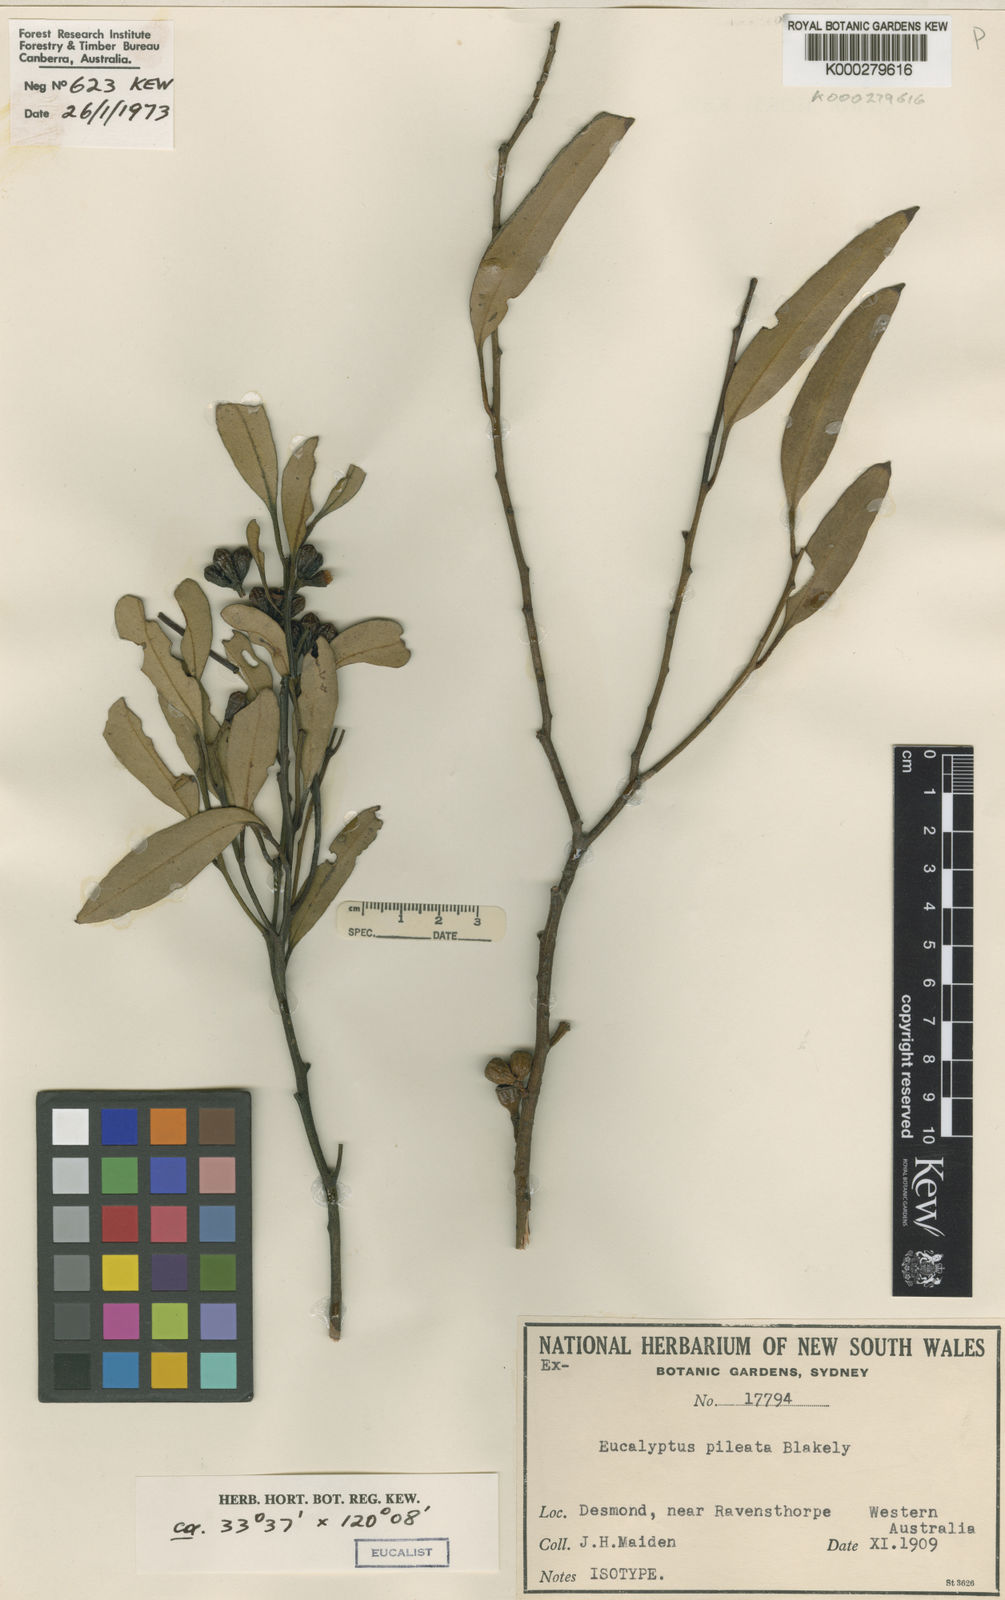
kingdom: Plantae
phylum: Tracheophyta
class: Magnoliopsida
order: Myrtales
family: Myrtaceae
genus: Eucalyptus
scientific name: Eucalyptus pileata
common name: Capped mallee
